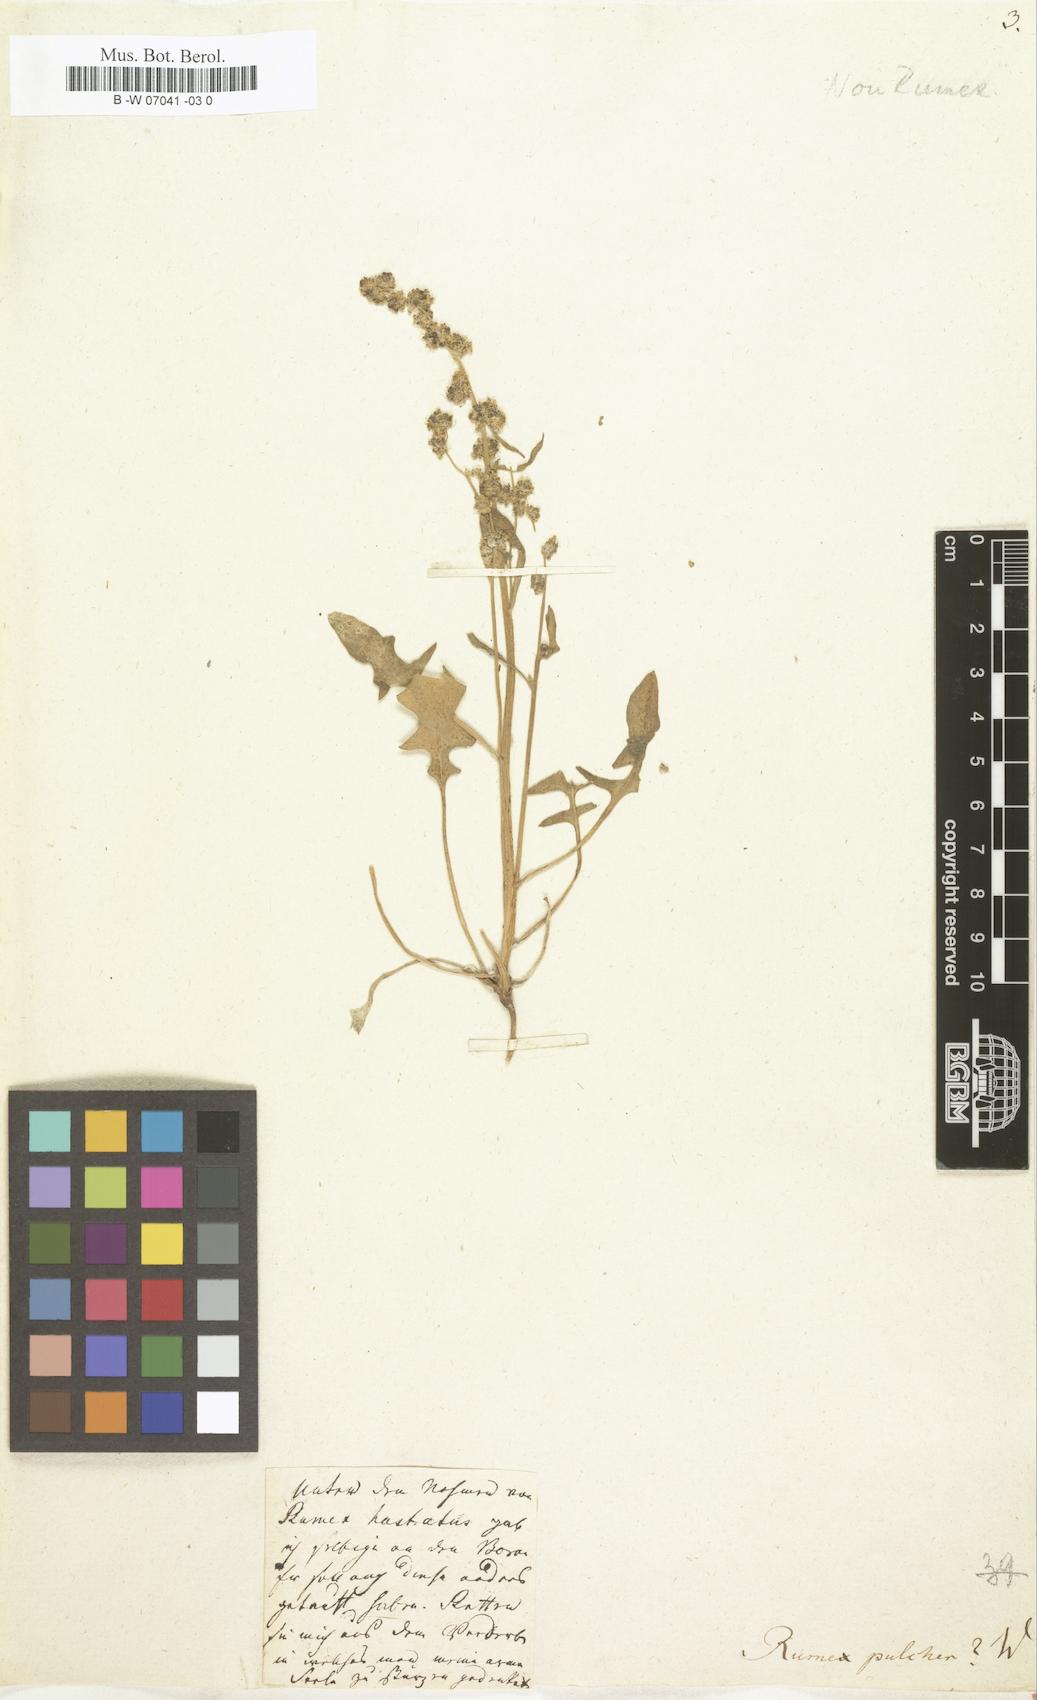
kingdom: Plantae
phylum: Tracheophyta
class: Magnoliopsida
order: Caryophyllales
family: Polygonaceae
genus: Rumex
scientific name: Rumex pulcher
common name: Fiddle dock
